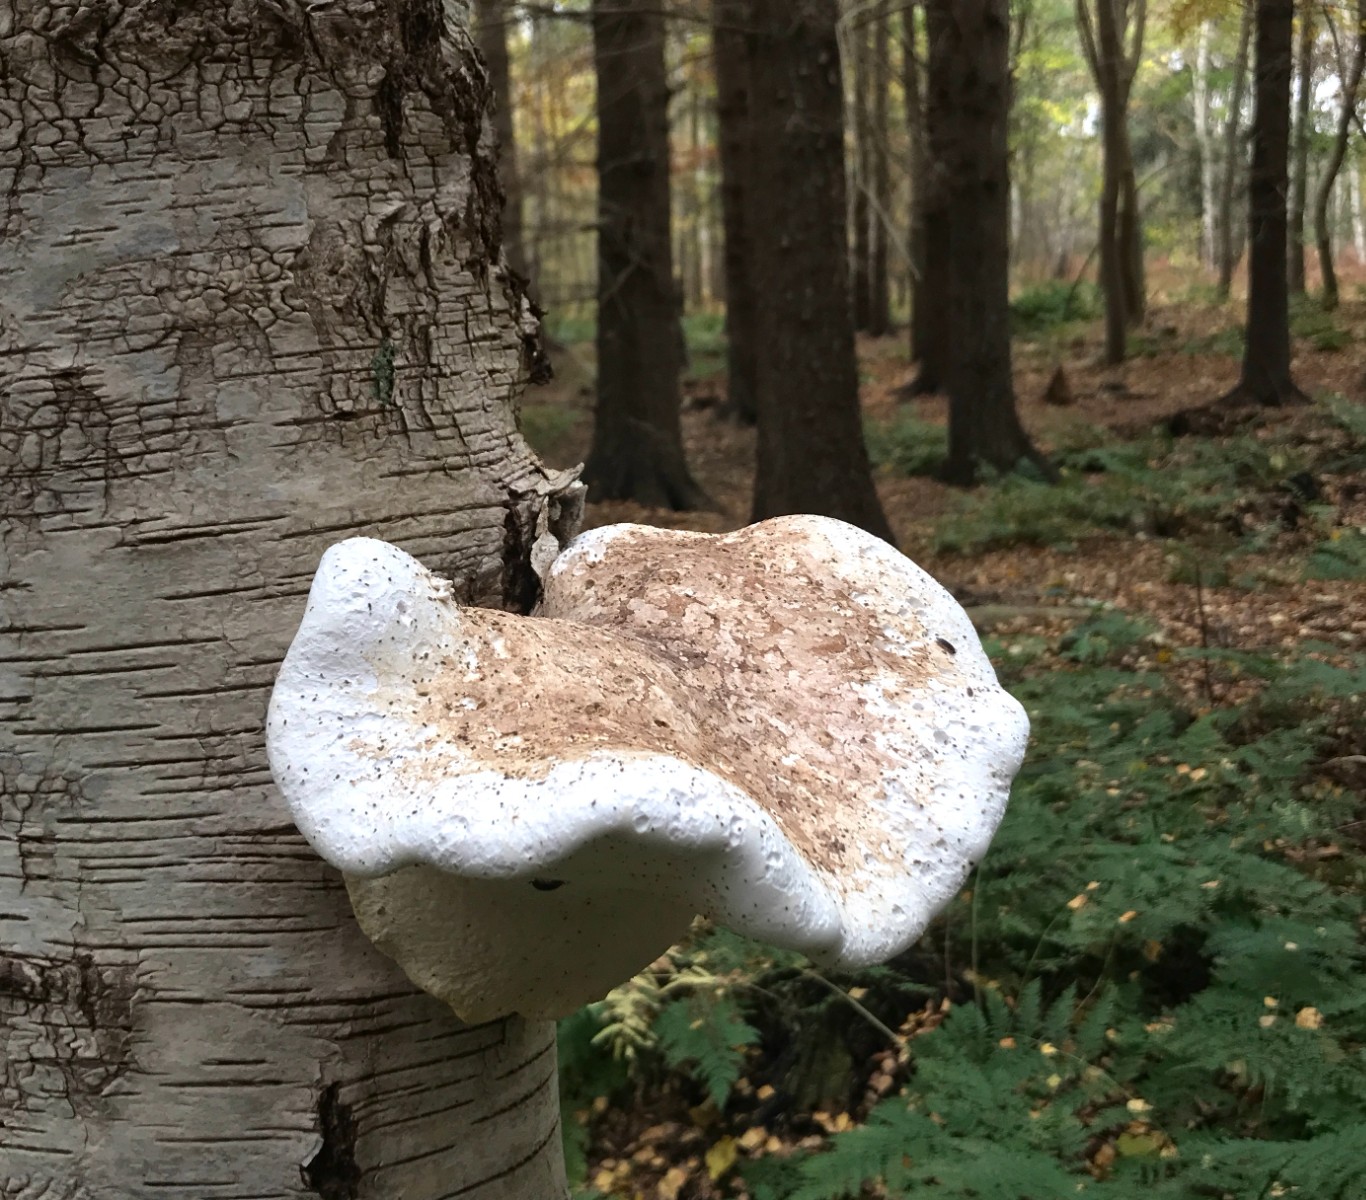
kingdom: Fungi
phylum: Basidiomycota
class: Agaricomycetes
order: Polyporales
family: Fomitopsidaceae
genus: Fomitopsis
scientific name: Fomitopsis betulina
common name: birkeporesvamp
